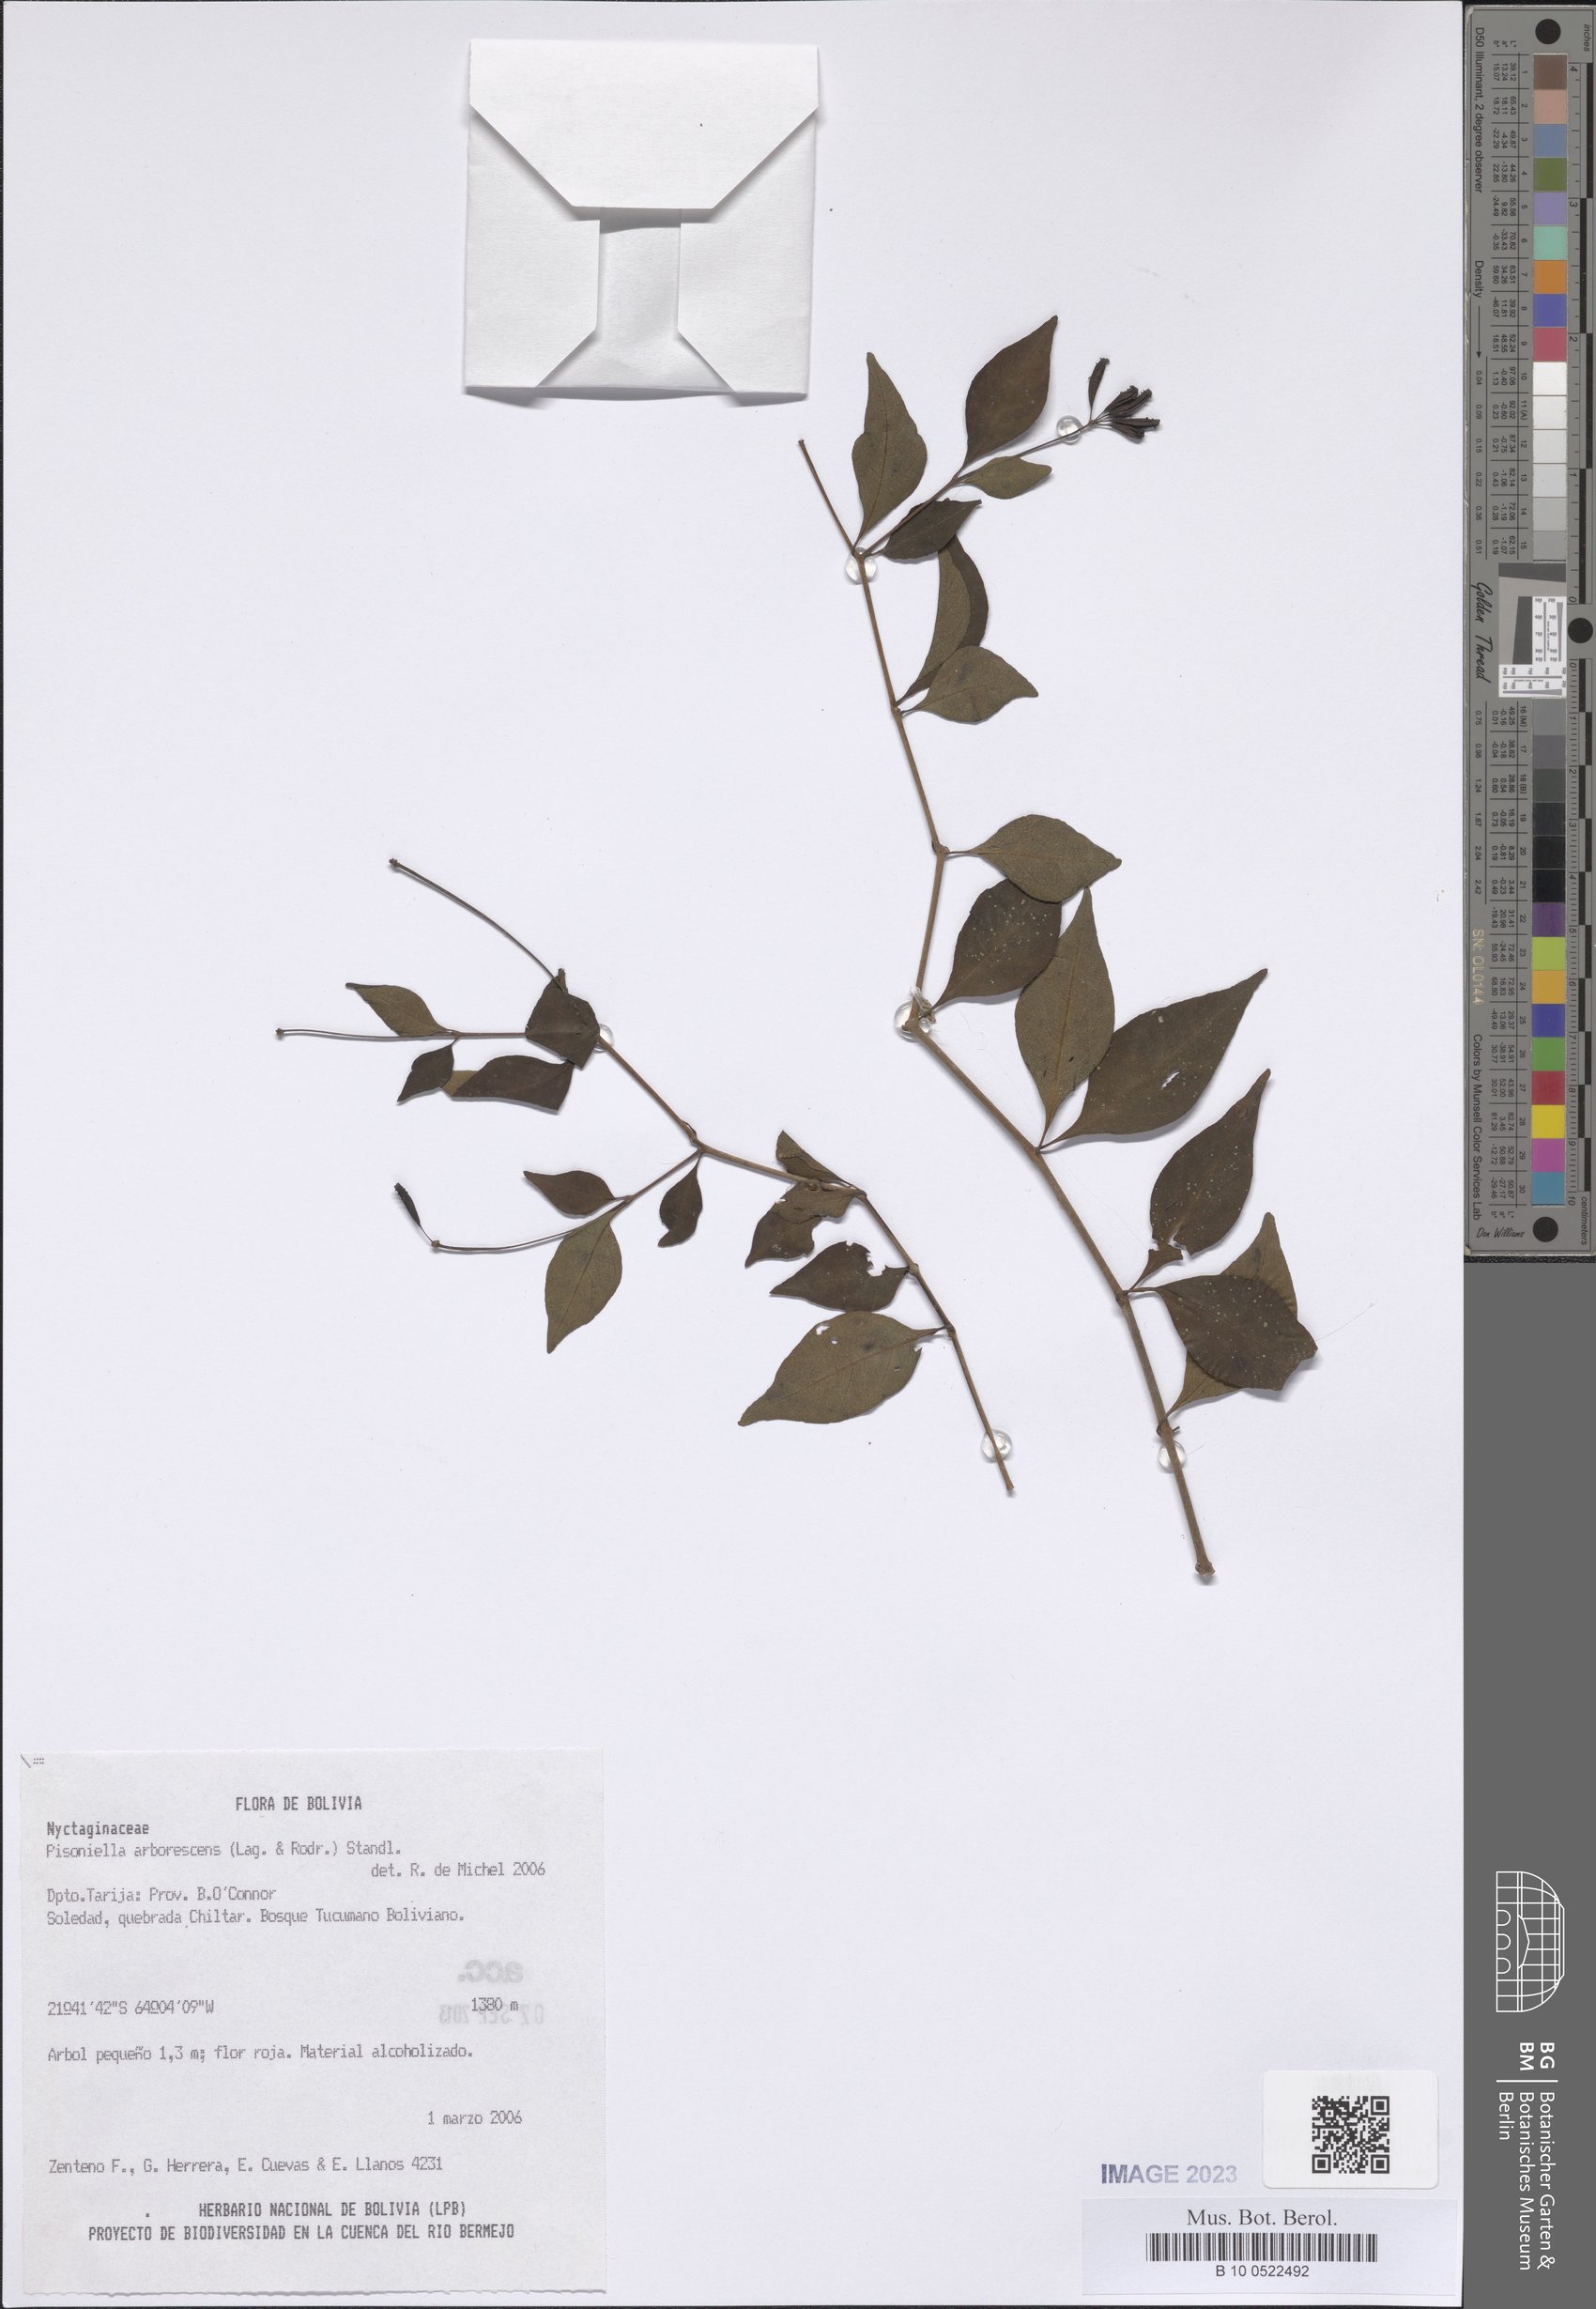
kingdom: Plantae
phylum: Tracheophyta
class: Magnoliopsida
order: Caryophyllales
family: Nyctaginaceae
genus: Pisoniella
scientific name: Pisoniella arborescens
